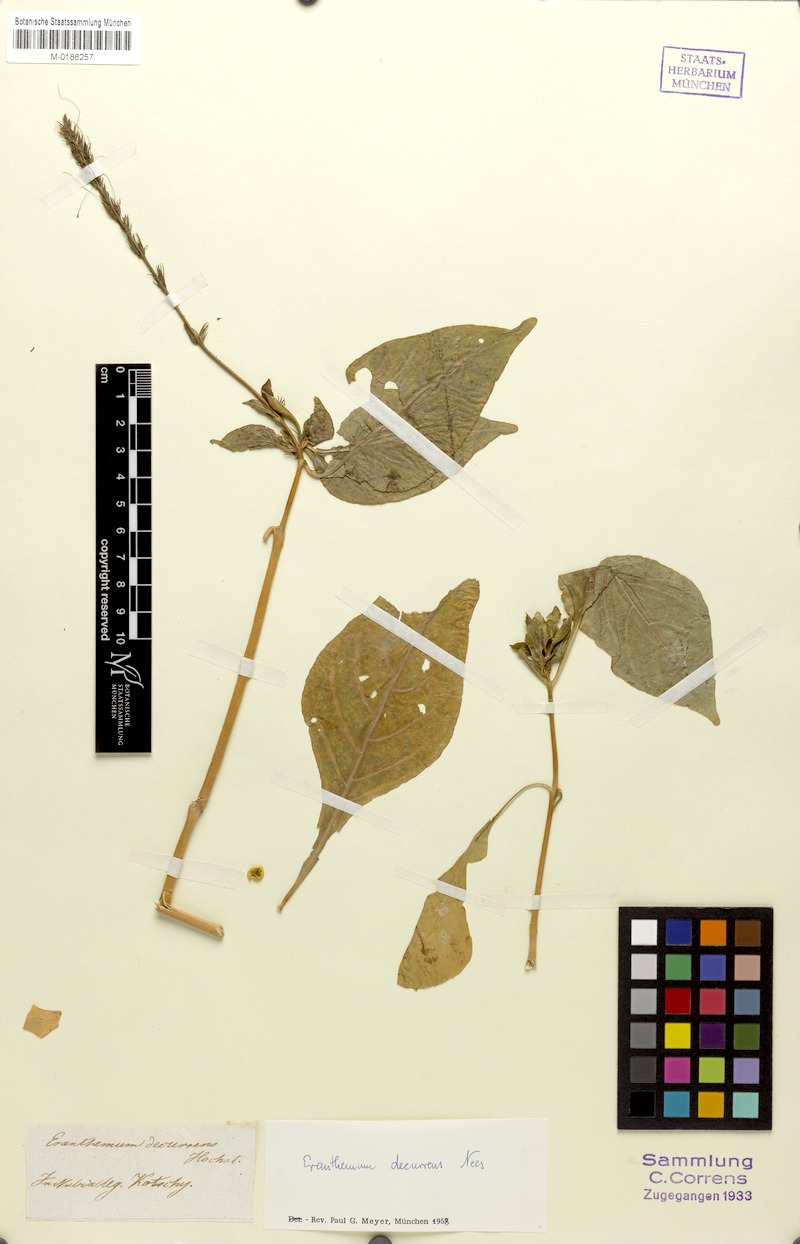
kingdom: Plantae
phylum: Tracheophyta
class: Magnoliopsida
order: Lamiales
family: Acanthaceae
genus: Ruspolia
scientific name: Ruspolia decurrens
